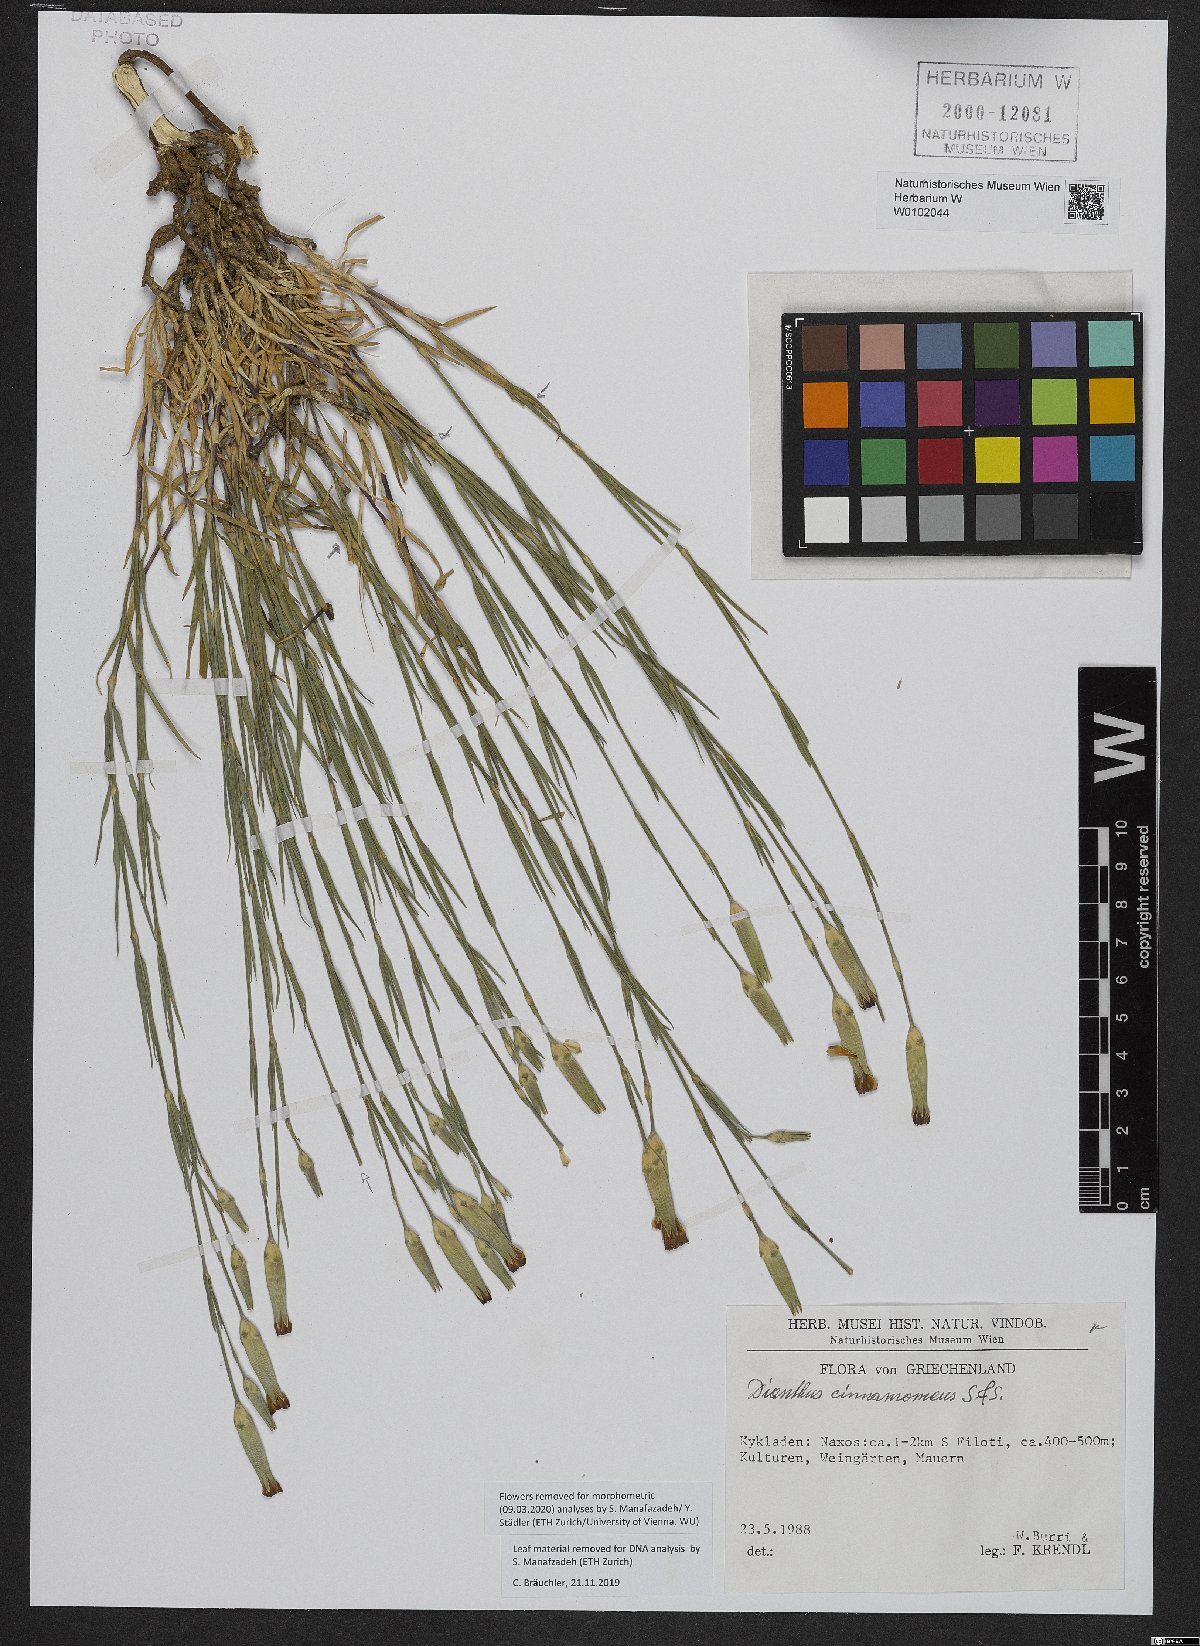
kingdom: Plantae
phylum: Tracheophyta
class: Magnoliopsida
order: Caryophyllales
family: Caryophyllaceae
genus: Dianthus
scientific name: Dianthus cinnamomeus
